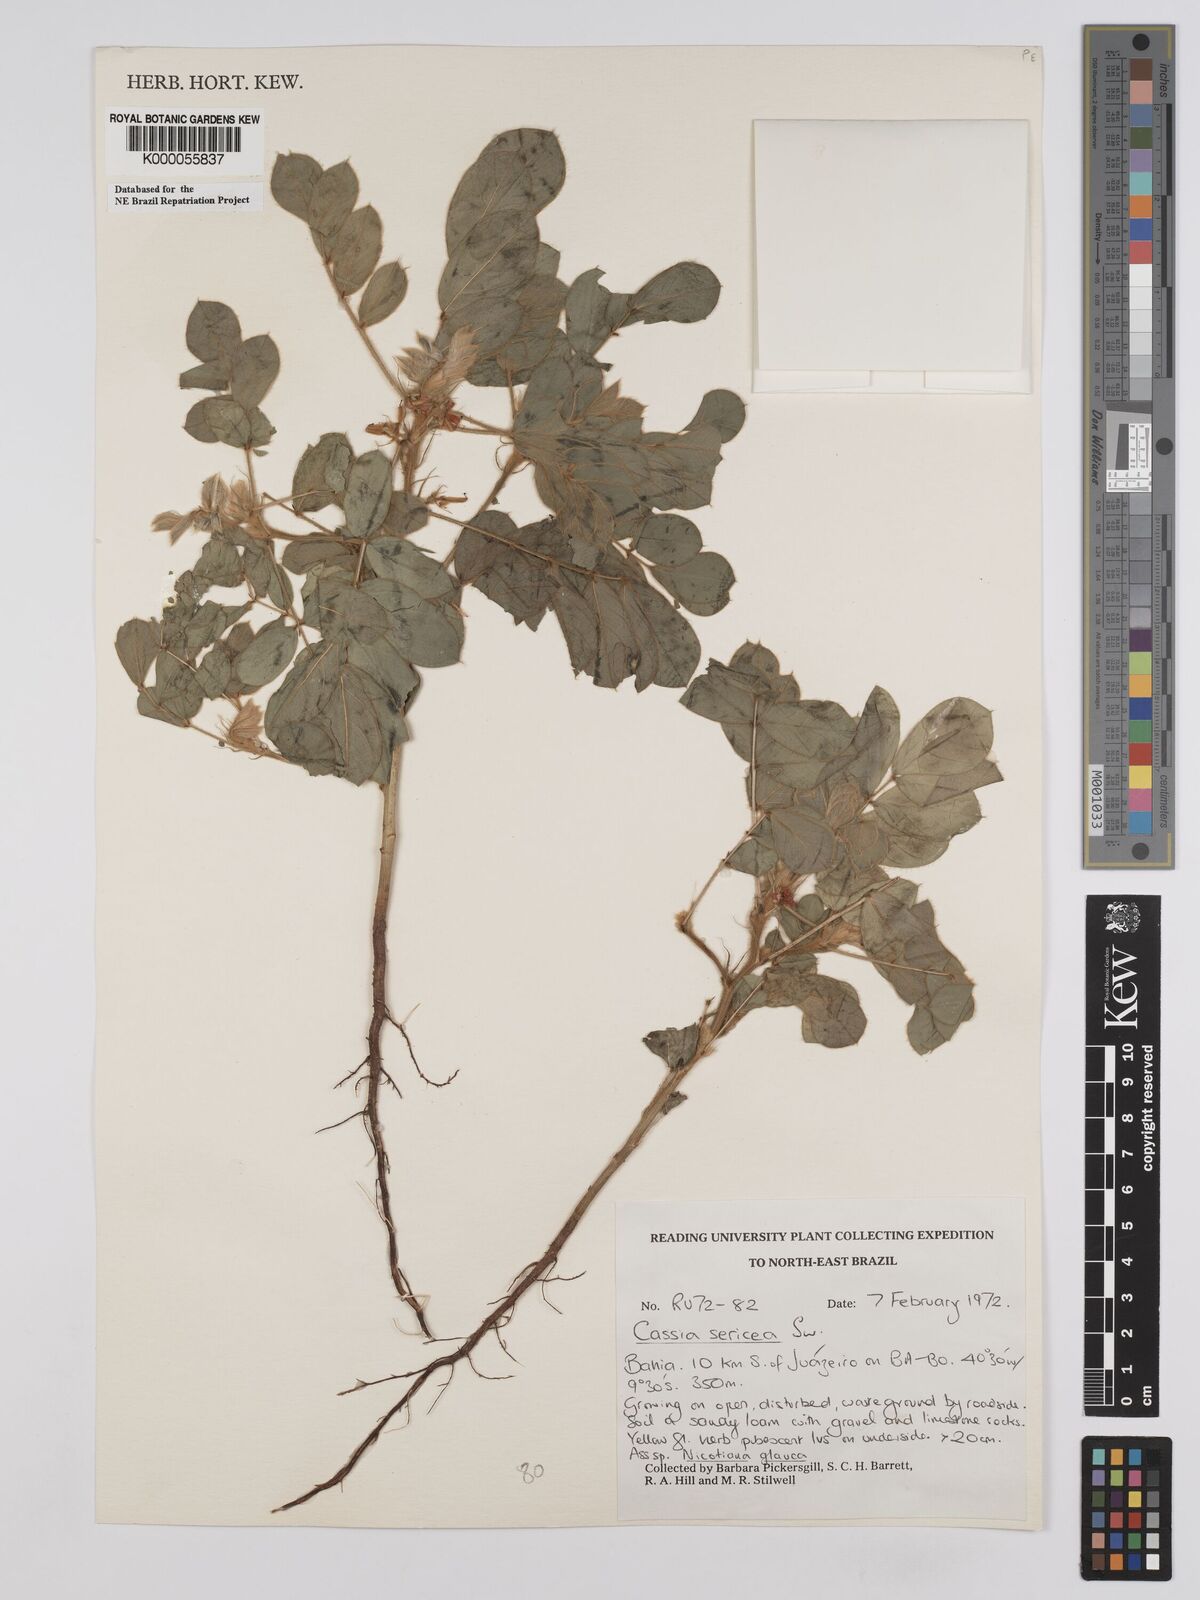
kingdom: Plantae
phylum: Tracheophyta
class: Magnoliopsida
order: Fabales
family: Fabaceae
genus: Senna
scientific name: Senna uniflora
